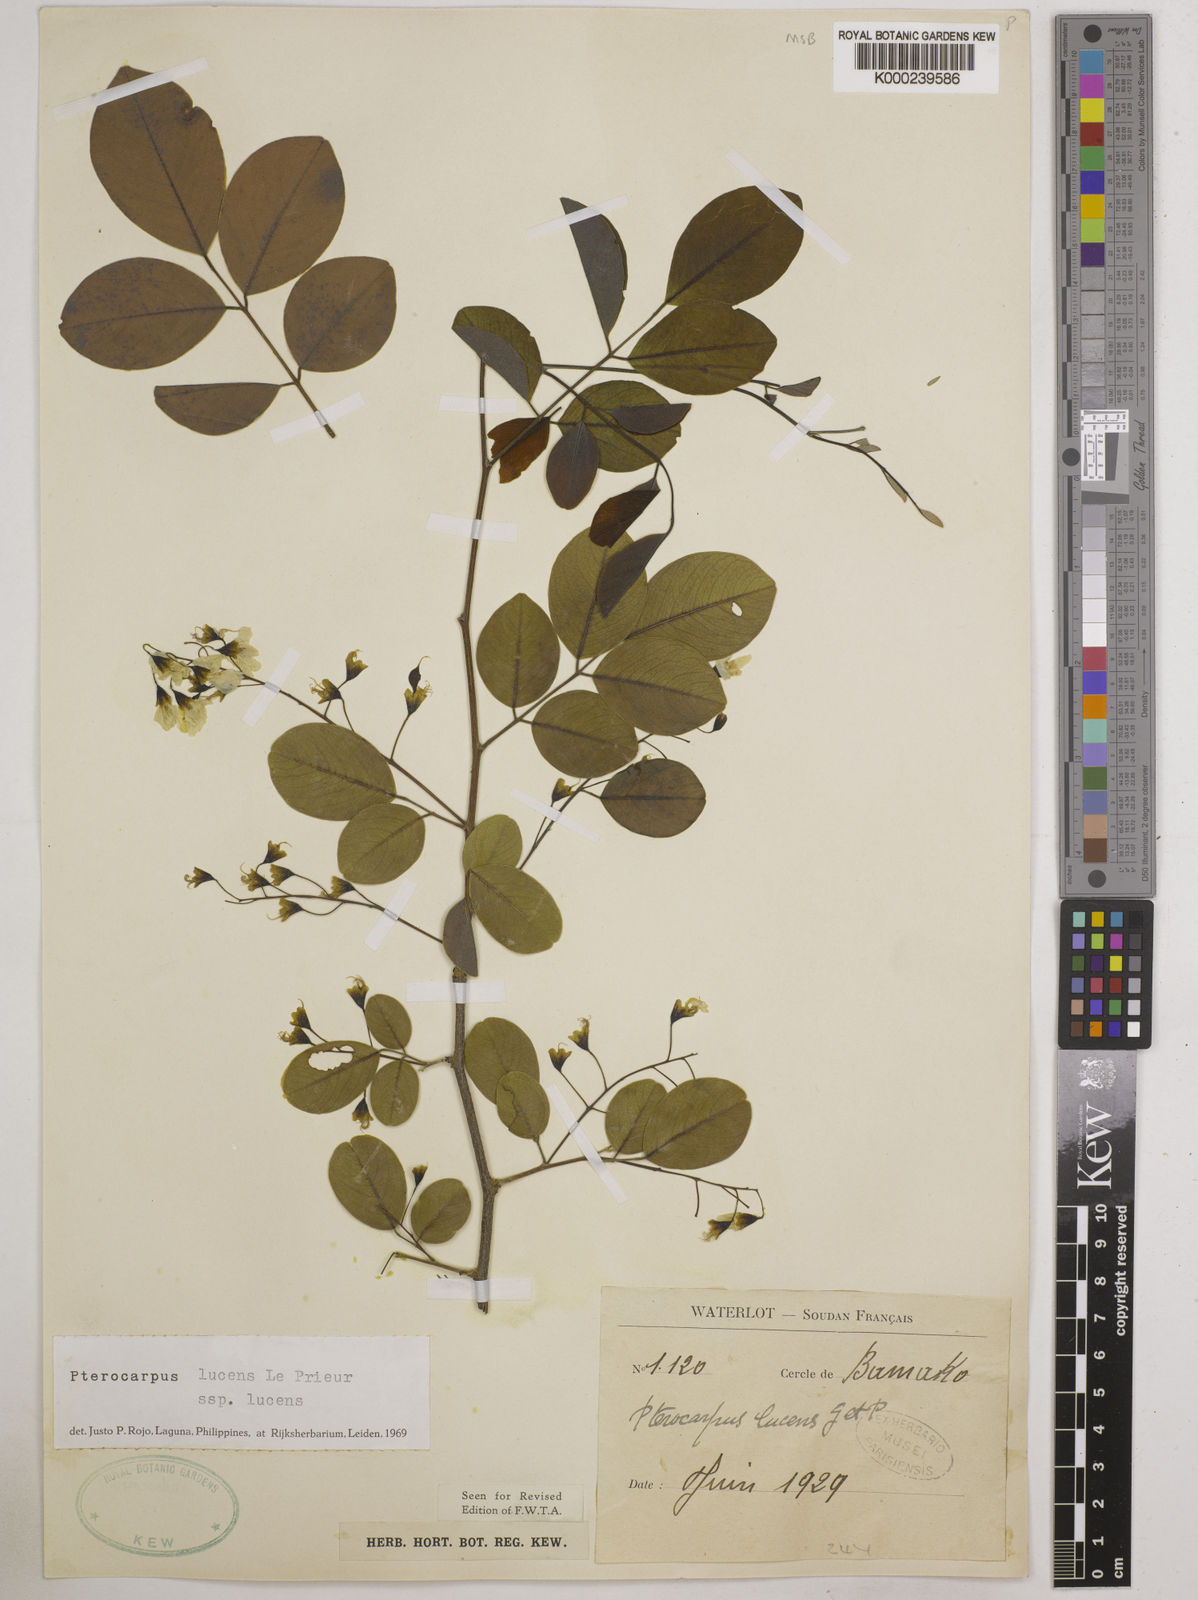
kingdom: Plantae
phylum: Tracheophyta
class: Magnoliopsida
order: Fabales
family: Fabaceae
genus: Pterocarpus
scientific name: Pterocarpus lucens
